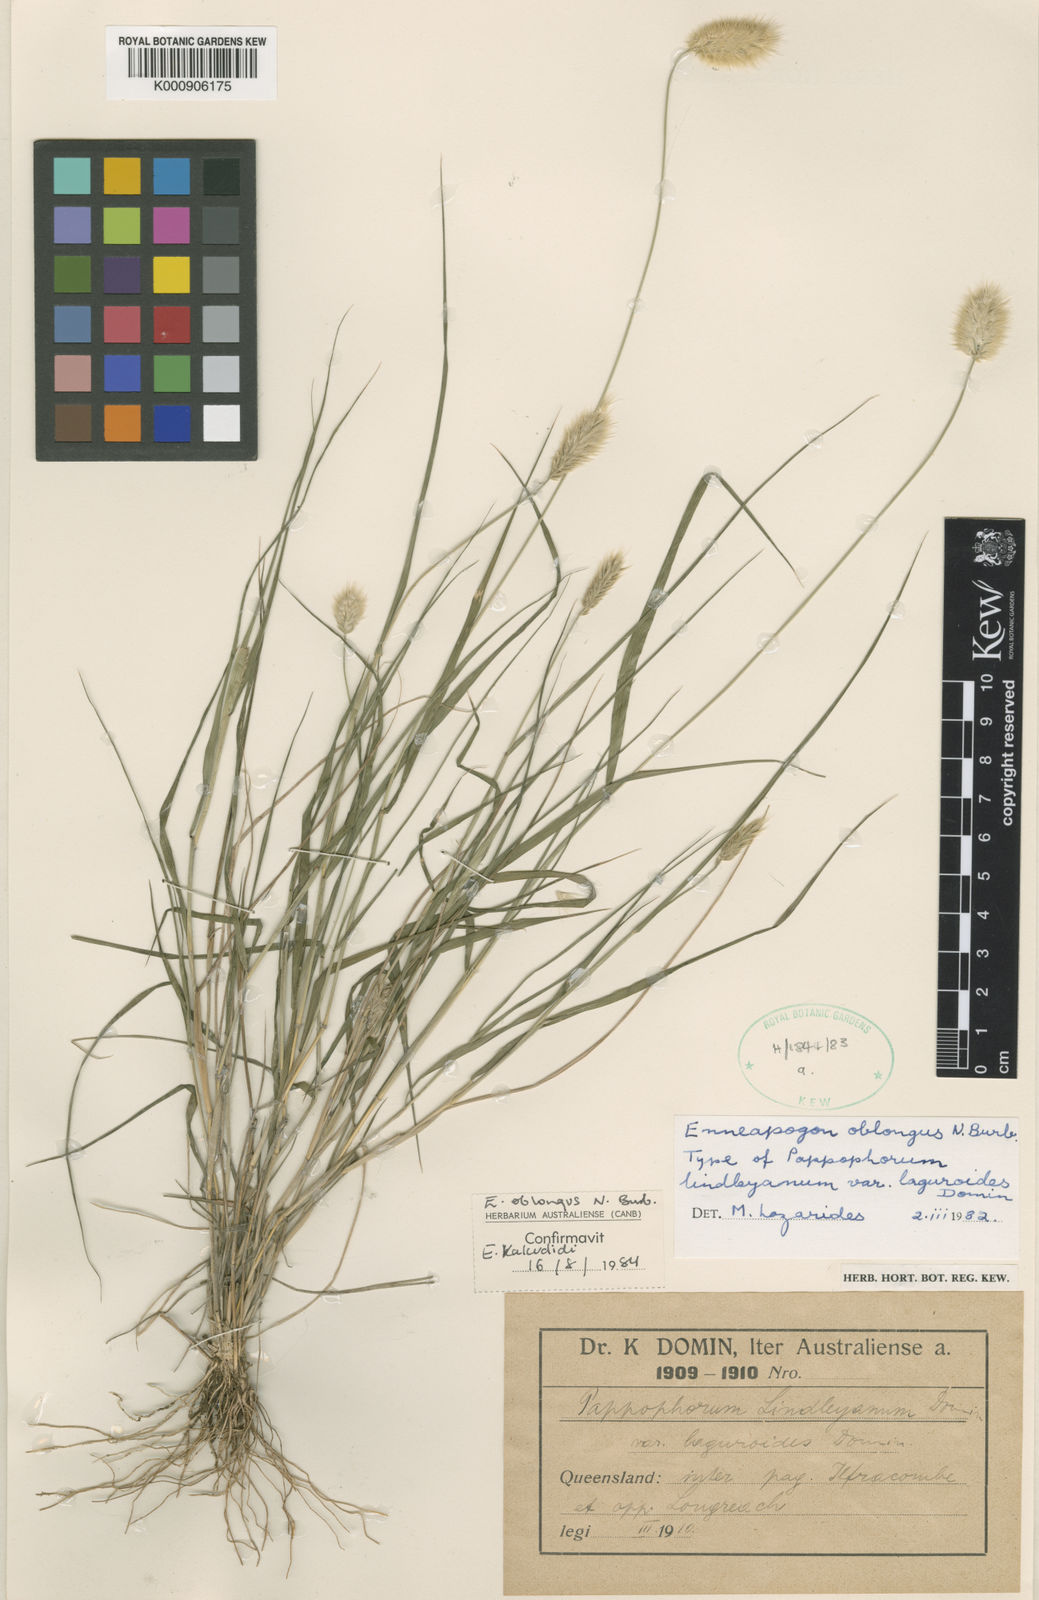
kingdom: Plantae
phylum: Tracheophyta
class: Liliopsida
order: Poales
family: Poaceae
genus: Enneapogon
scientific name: Enneapogon lindleyanus
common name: Conetop nineawn
